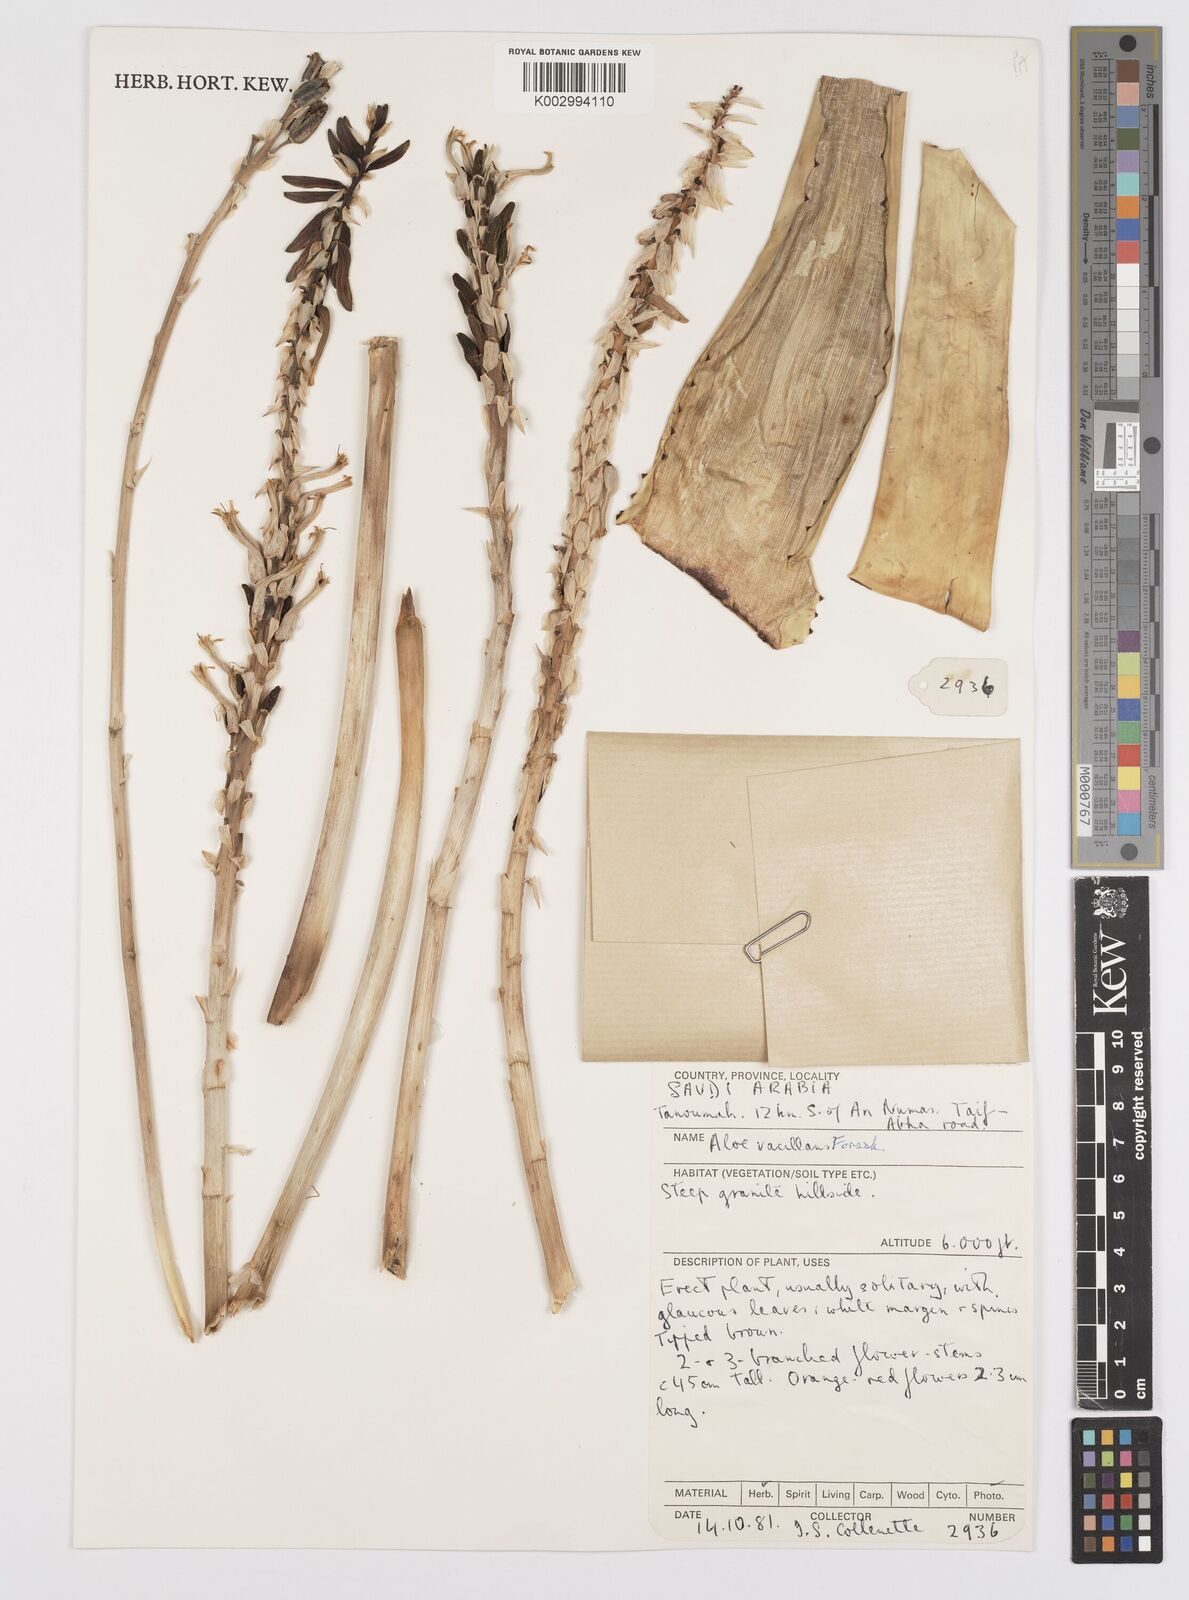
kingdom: Plantae
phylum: Tracheophyta
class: Liliopsida
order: Asparagales
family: Asphodelaceae
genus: Aloe
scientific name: Aloe vacillans
